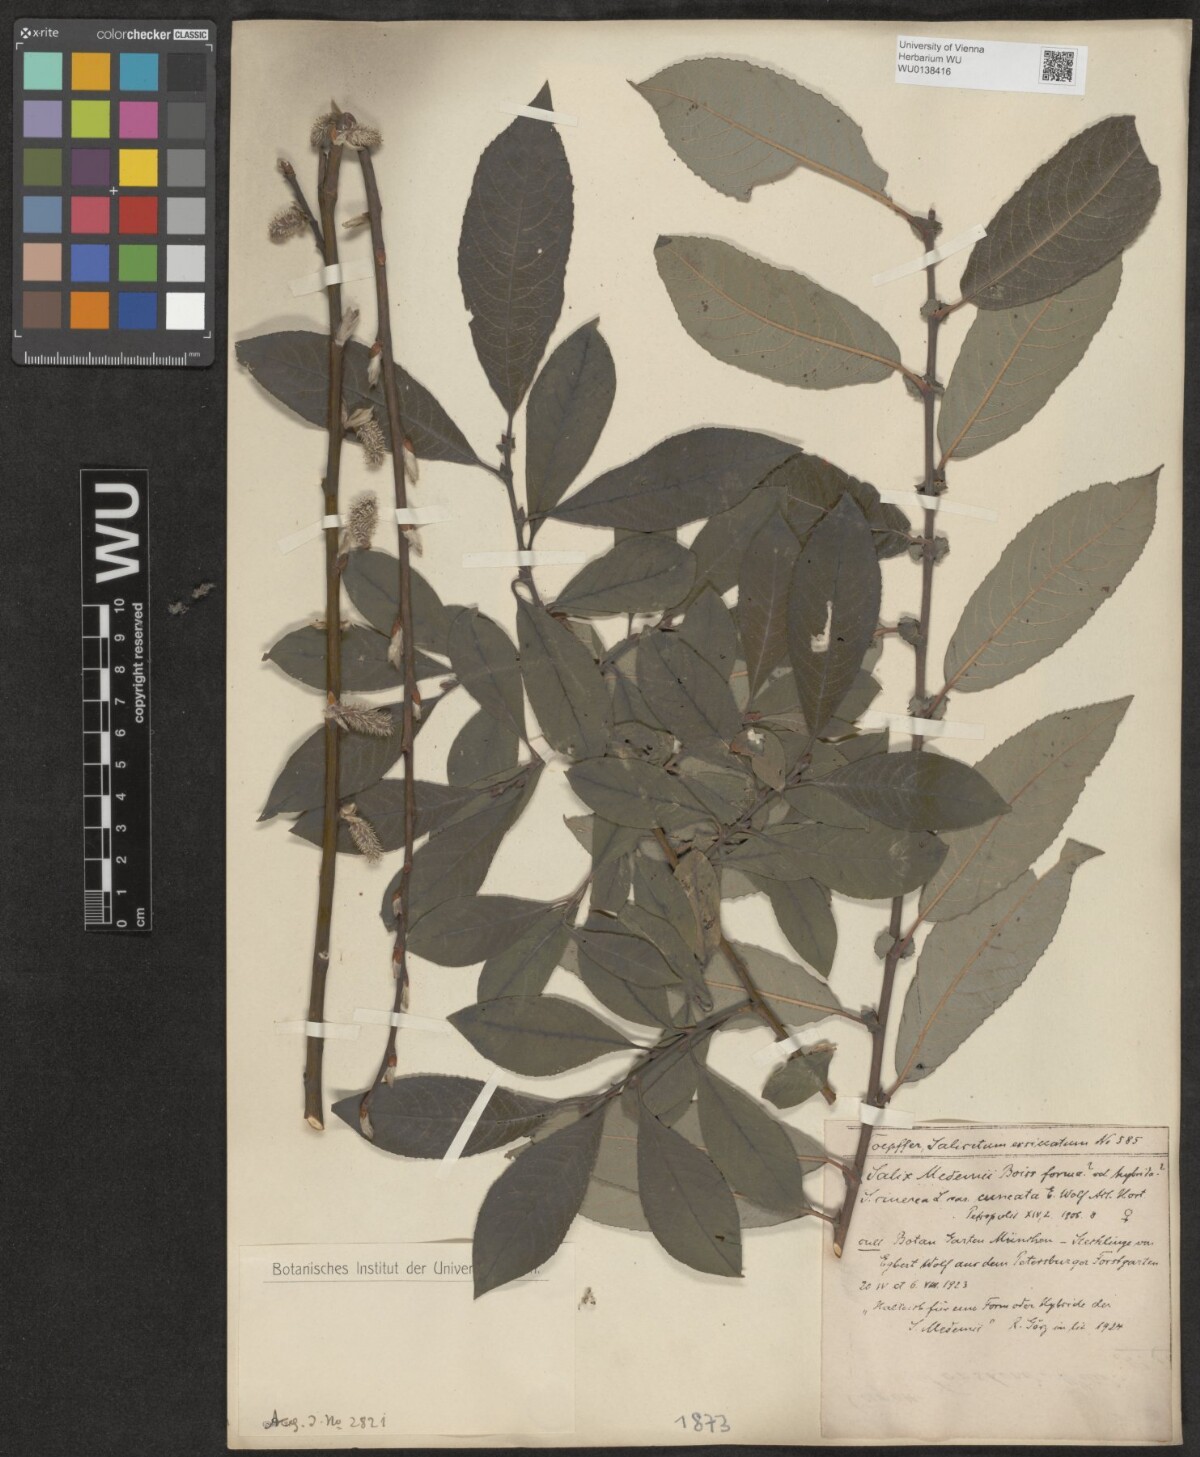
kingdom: Plantae
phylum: Tracheophyta
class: Magnoliopsida
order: Malpighiales
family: Salicaceae
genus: Salix
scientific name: Salix aegyptiaca
